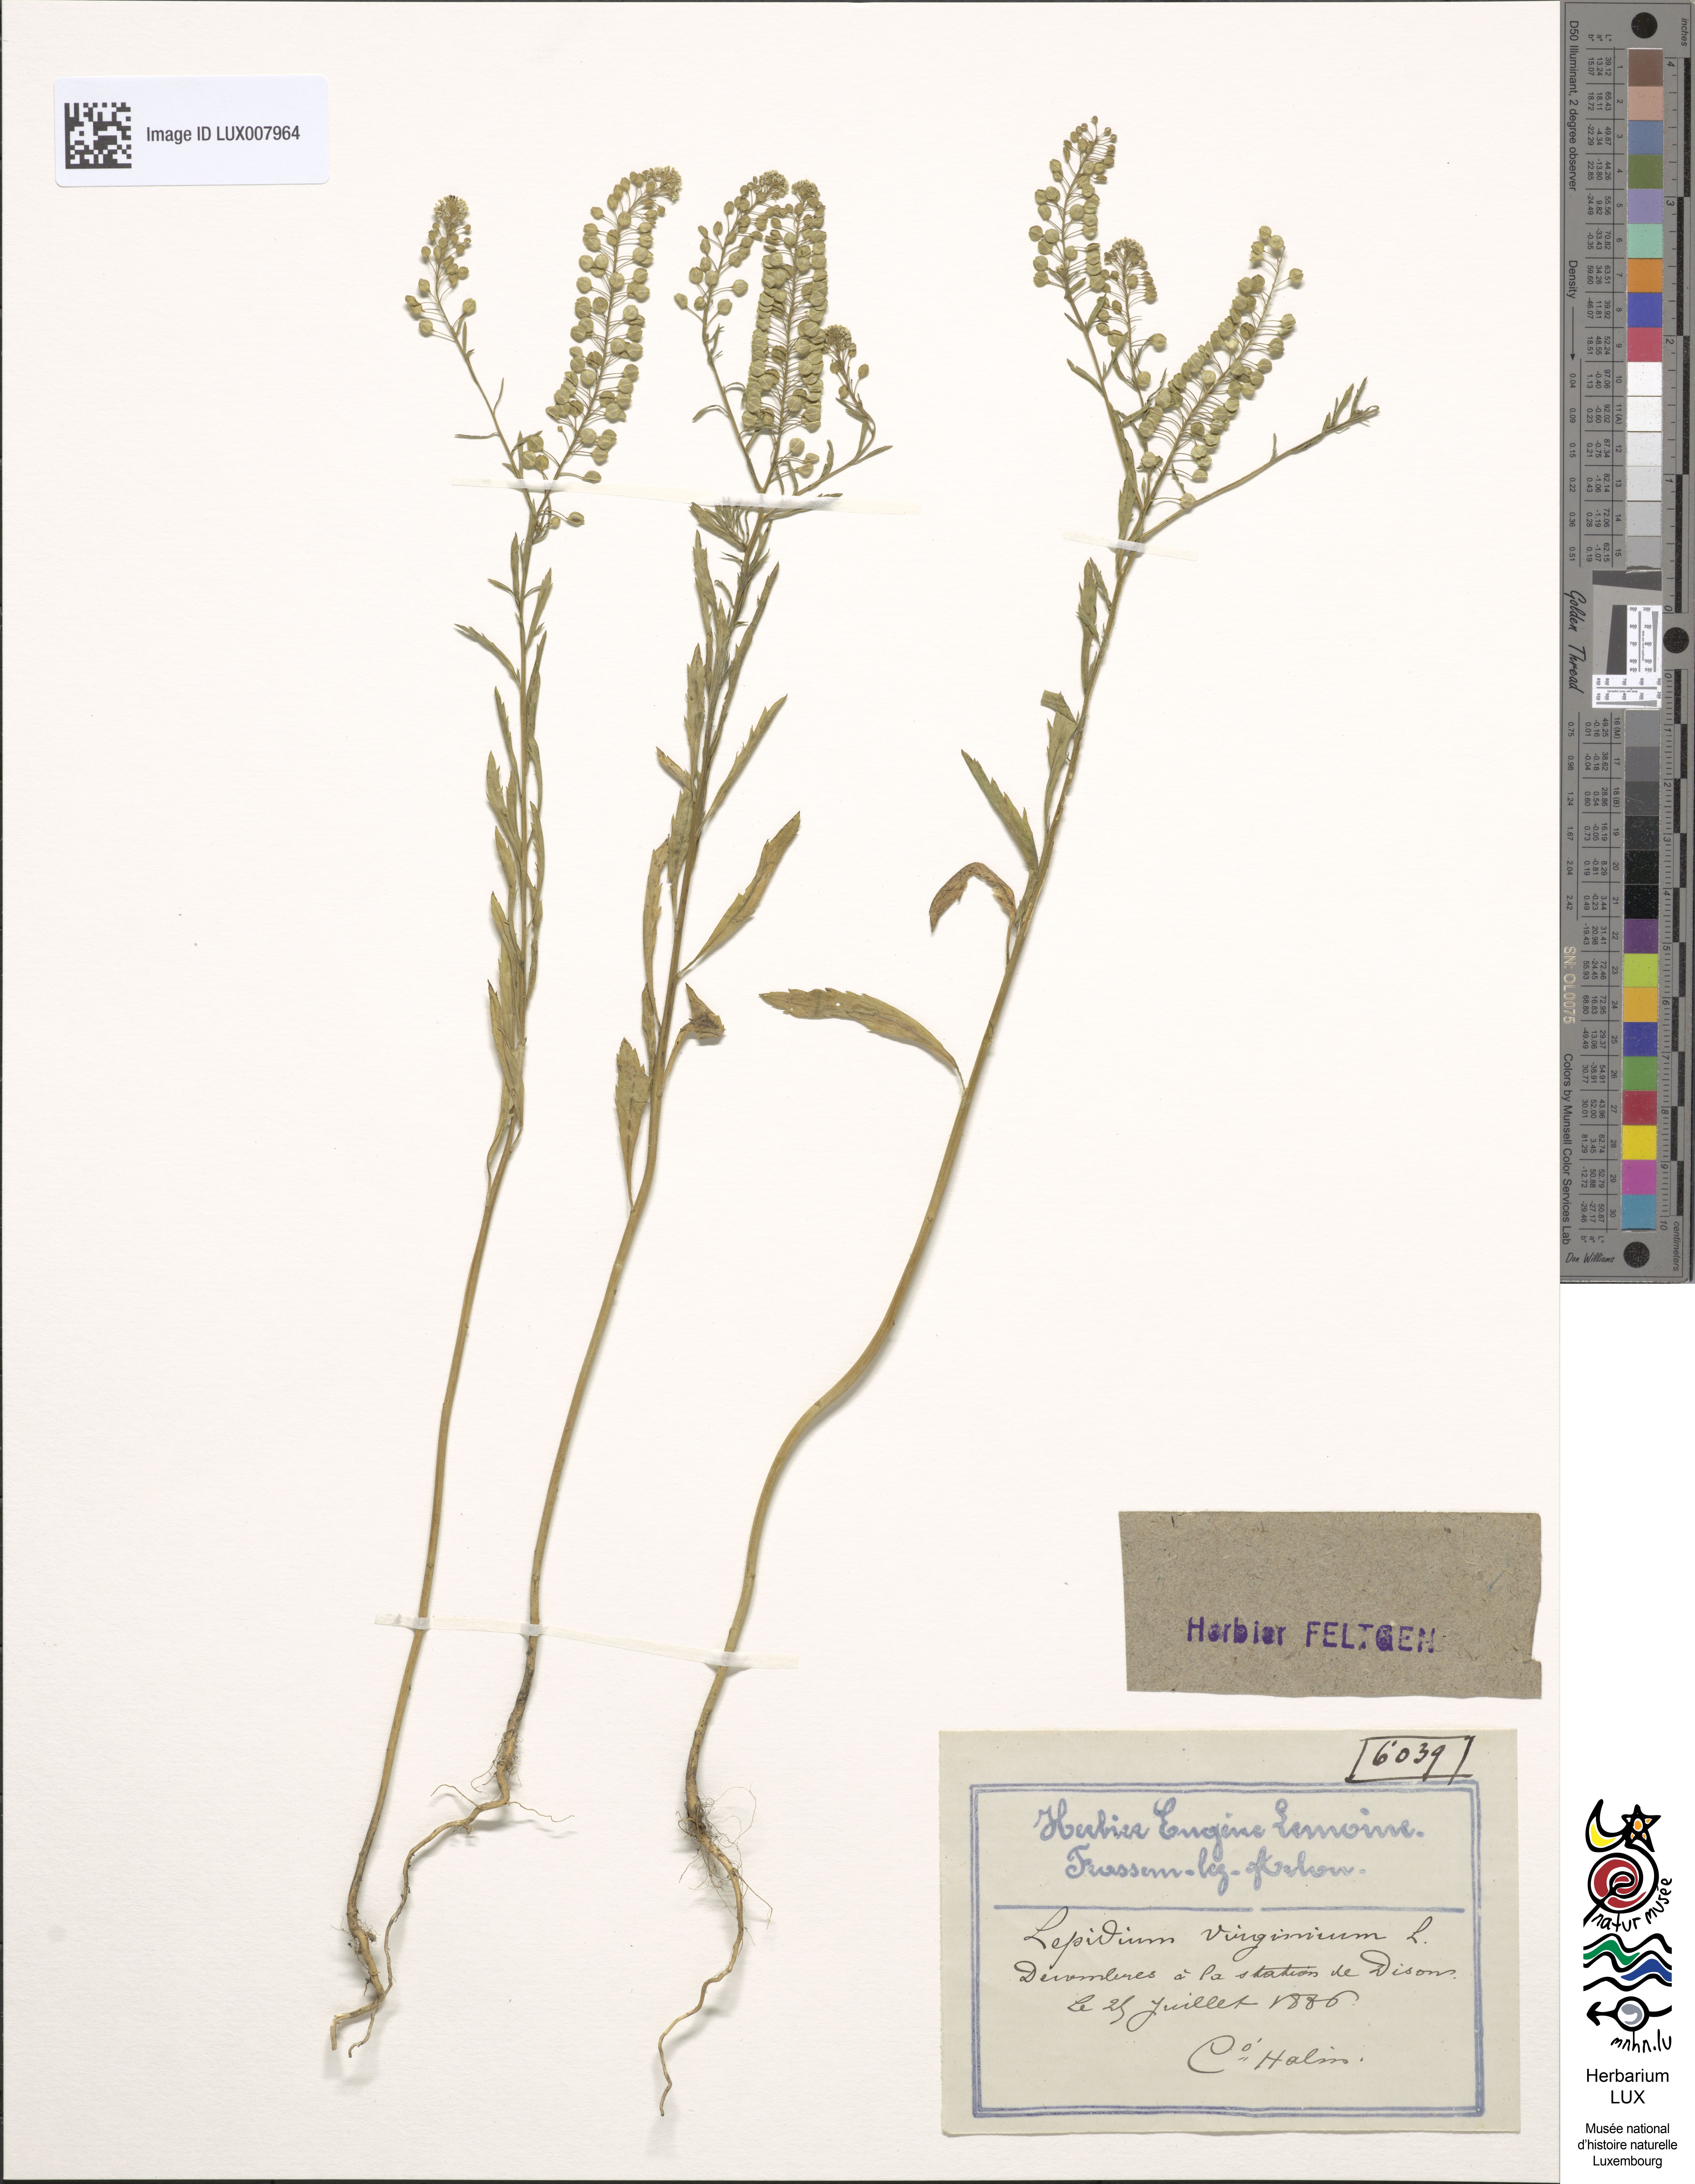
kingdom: Plantae
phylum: Tracheophyta
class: Magnoliopsida
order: Brassicales
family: Brassicaceae
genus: Lepidium
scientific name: Lepidium virginicum
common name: Least pepperwort
